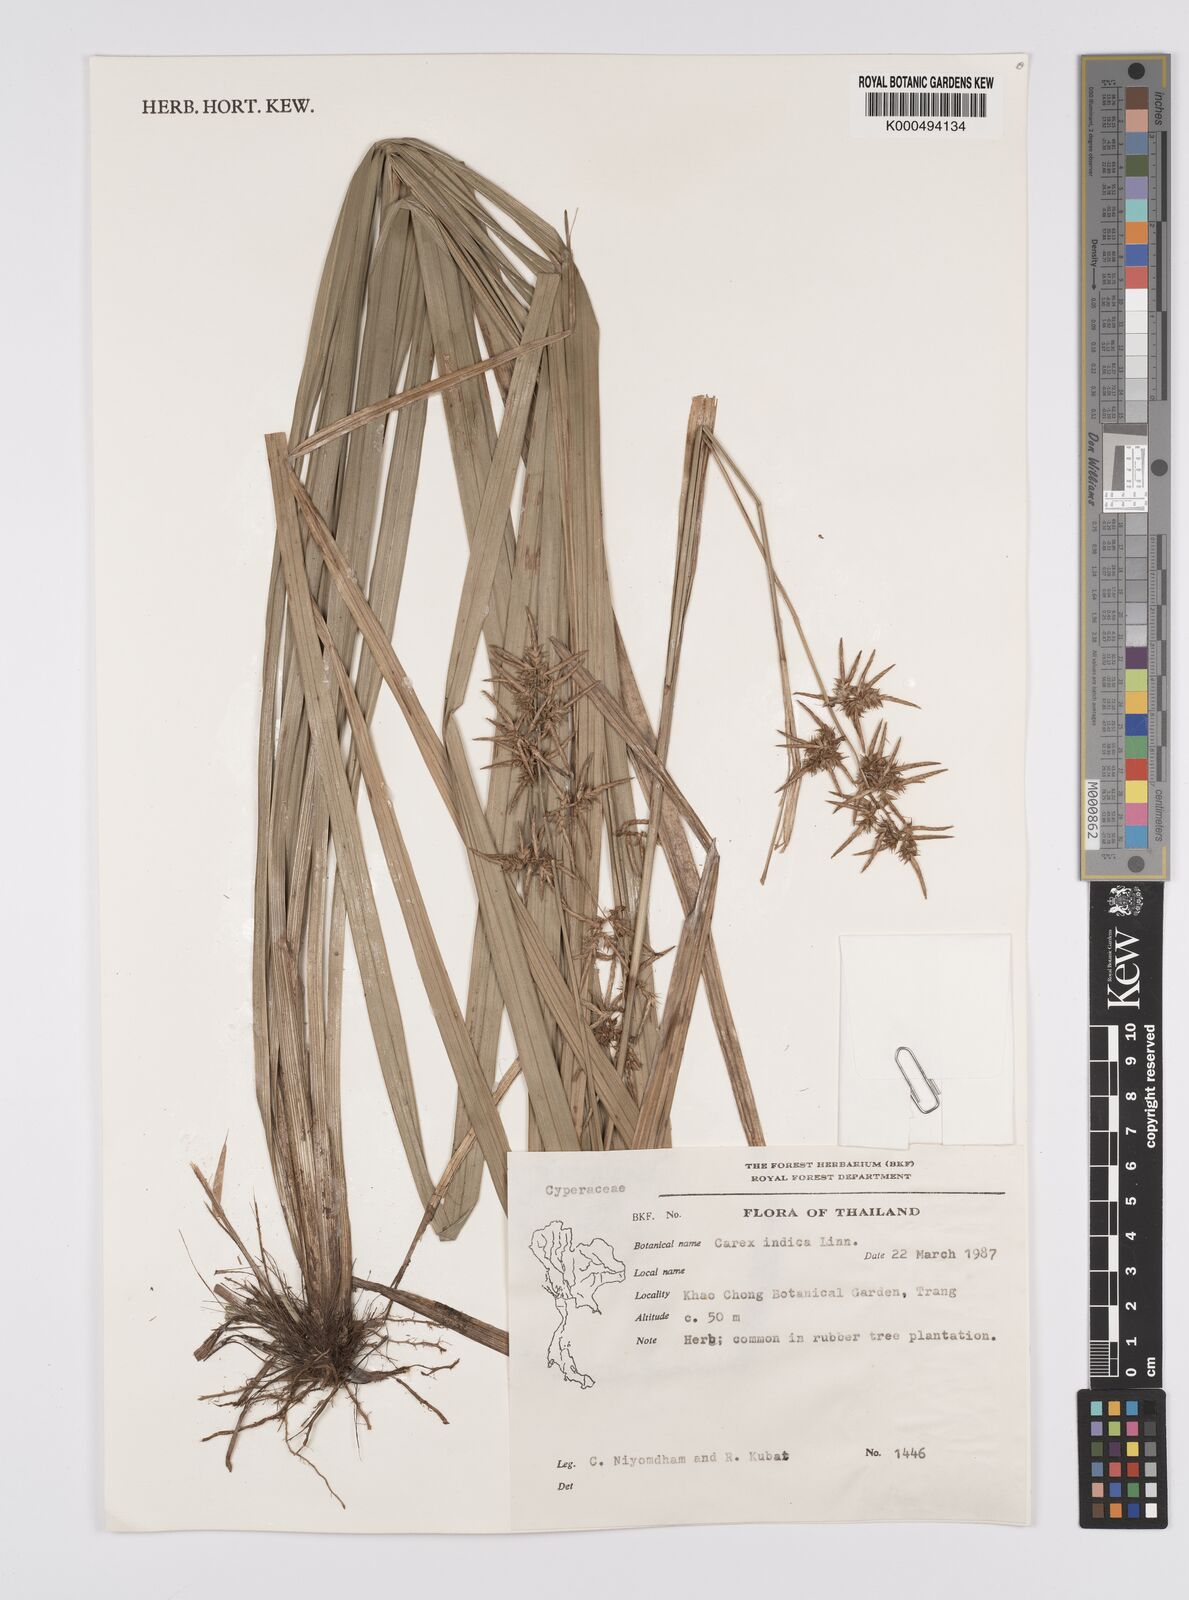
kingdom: Plantae
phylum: Tracheophyta
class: Liliopsida
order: Poales
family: Cyperaceae
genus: Carex
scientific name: Carex indica
